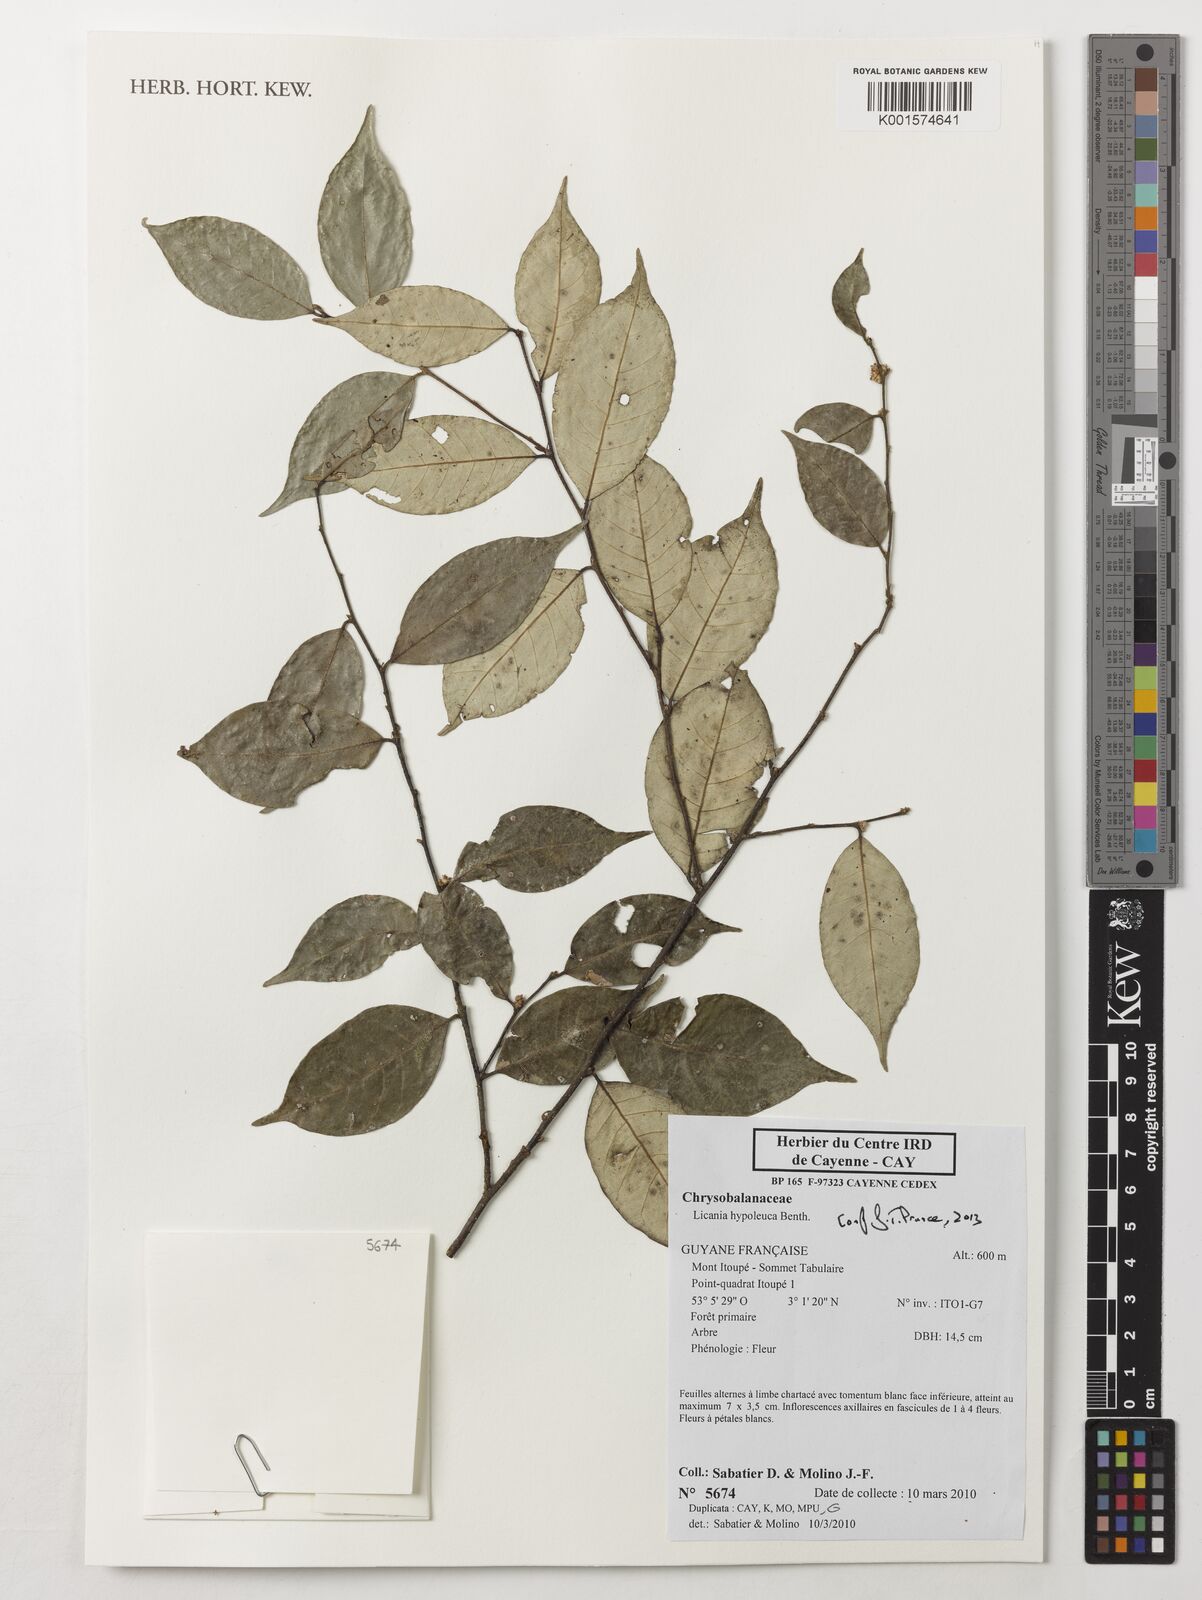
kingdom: Plantae
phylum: Tracheophyta
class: Magnoliopsida
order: Malpighiales
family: Chrysobalanaceae
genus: Licania
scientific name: Licania hypoleuca
